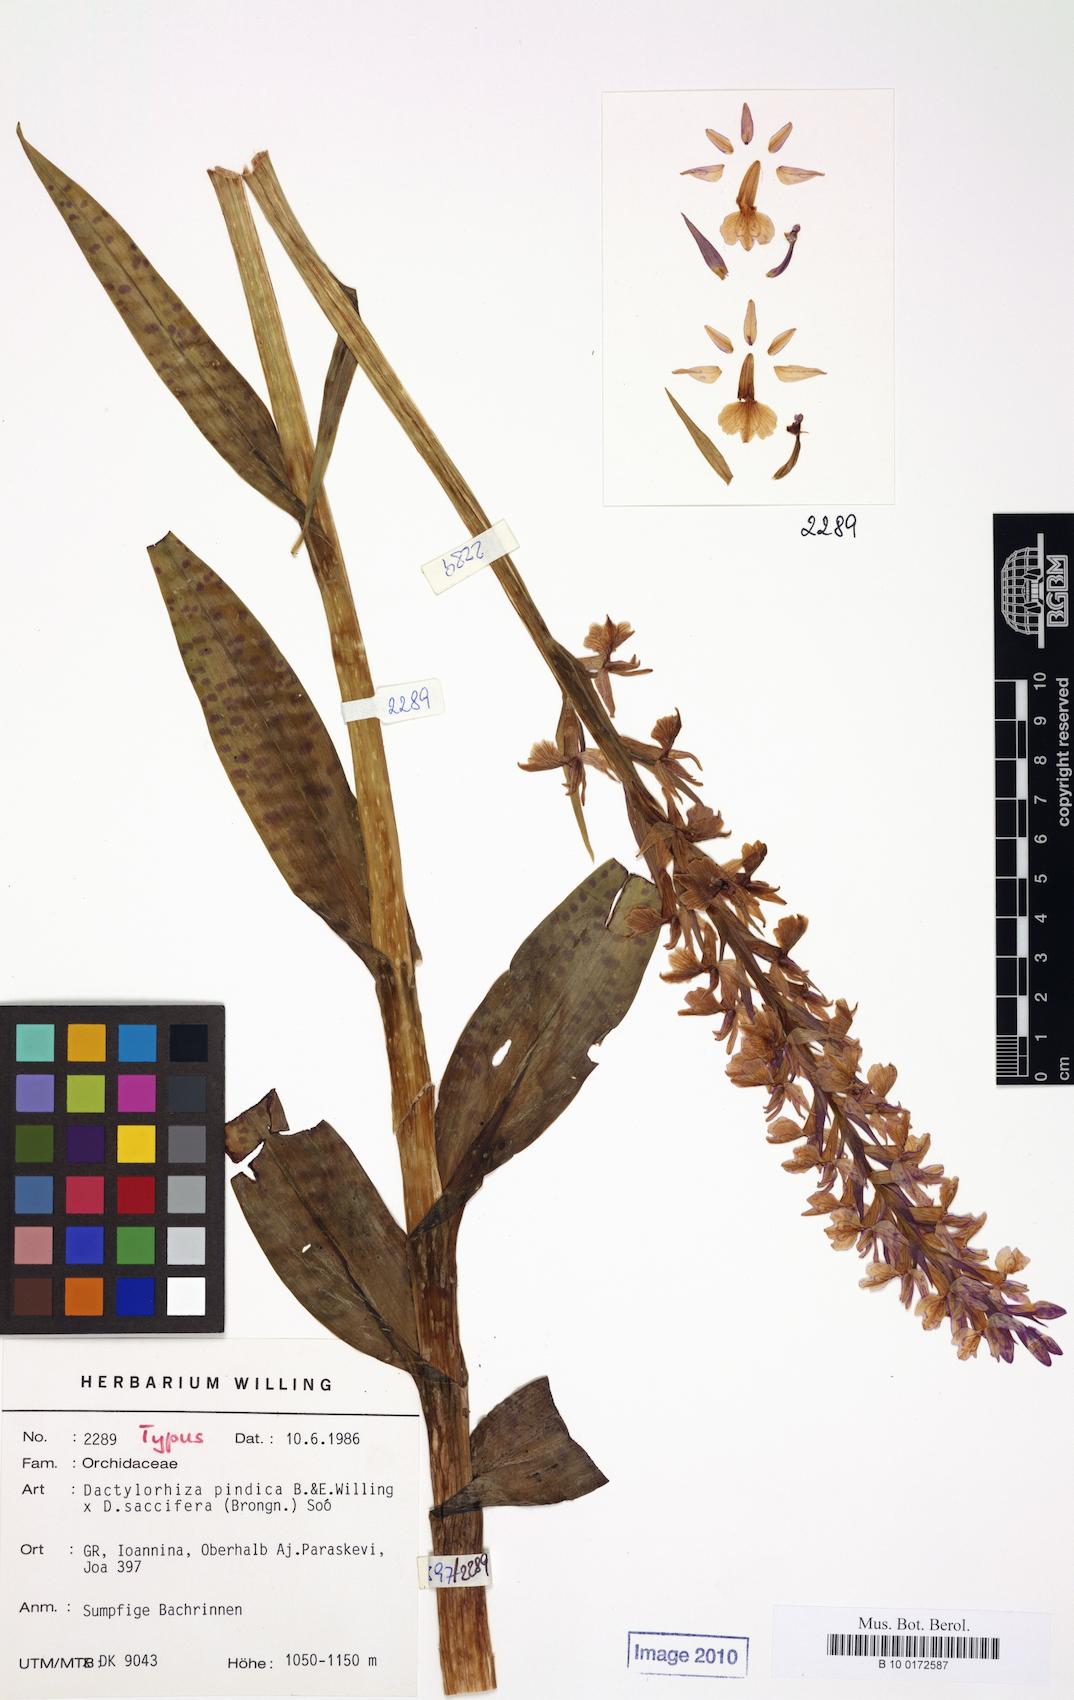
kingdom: Plantae
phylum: Tracheophyta
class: Liliopsida
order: Asparagales
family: Orchidaceae
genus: Dactylorhiza
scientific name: Dactylorhiza
